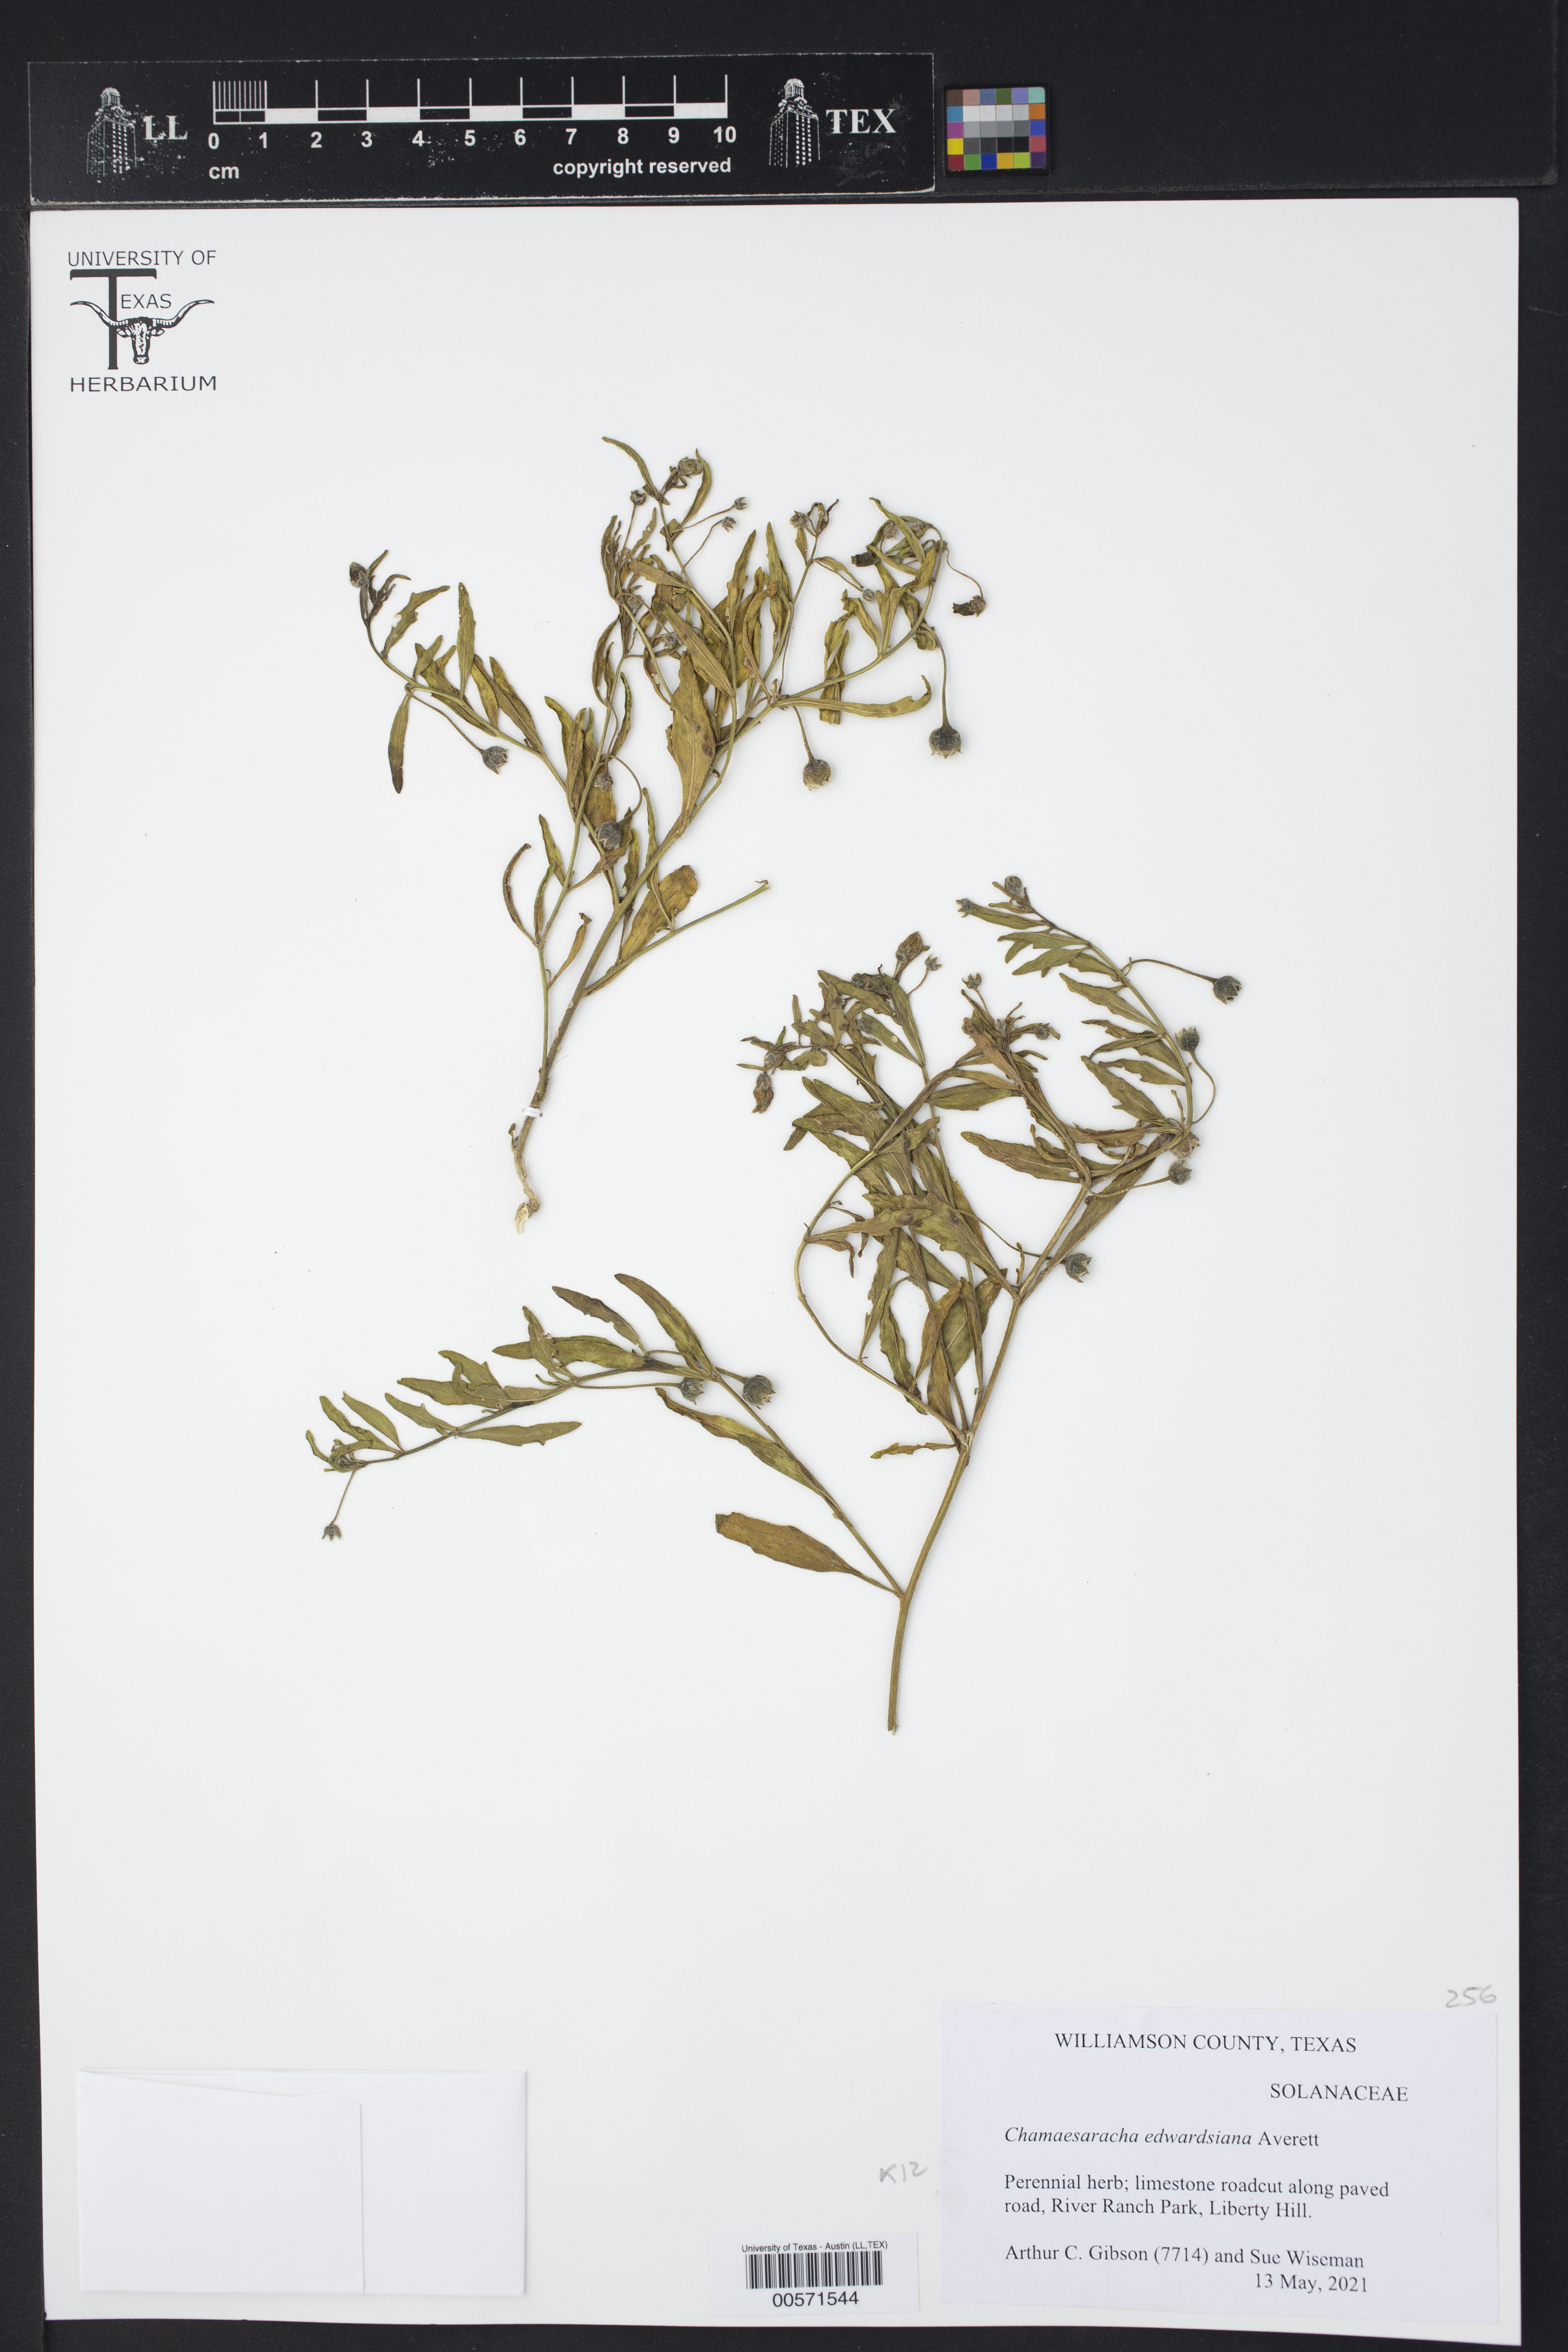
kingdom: Plantae
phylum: Tracheophyta
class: Magnoliopsida
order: Solanales
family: Solanaceae
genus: Chamaesaracha
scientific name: Chamaesaracha edwardsiana
